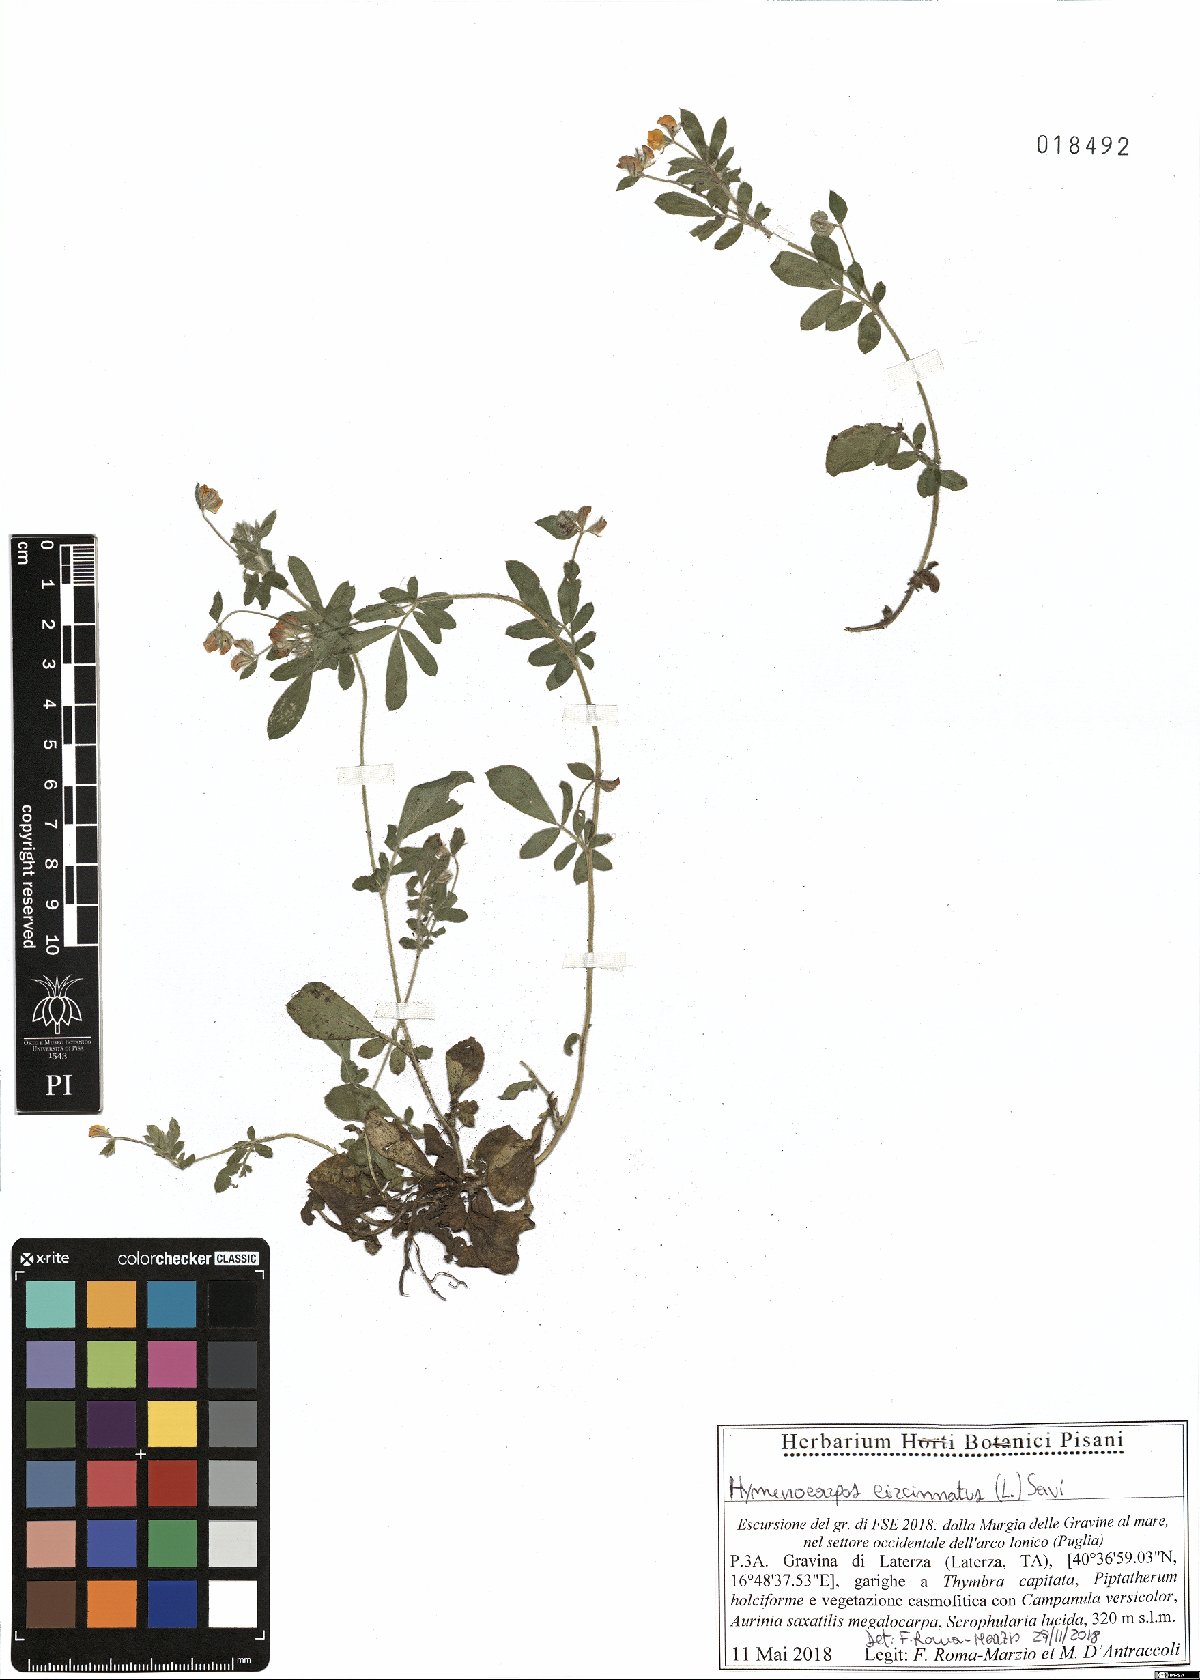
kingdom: Plantae
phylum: Tracheophyta
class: Magnoliopsida
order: Fabales
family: Fabaceae
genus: Anthyllis
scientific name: Anthyllis circinnata
